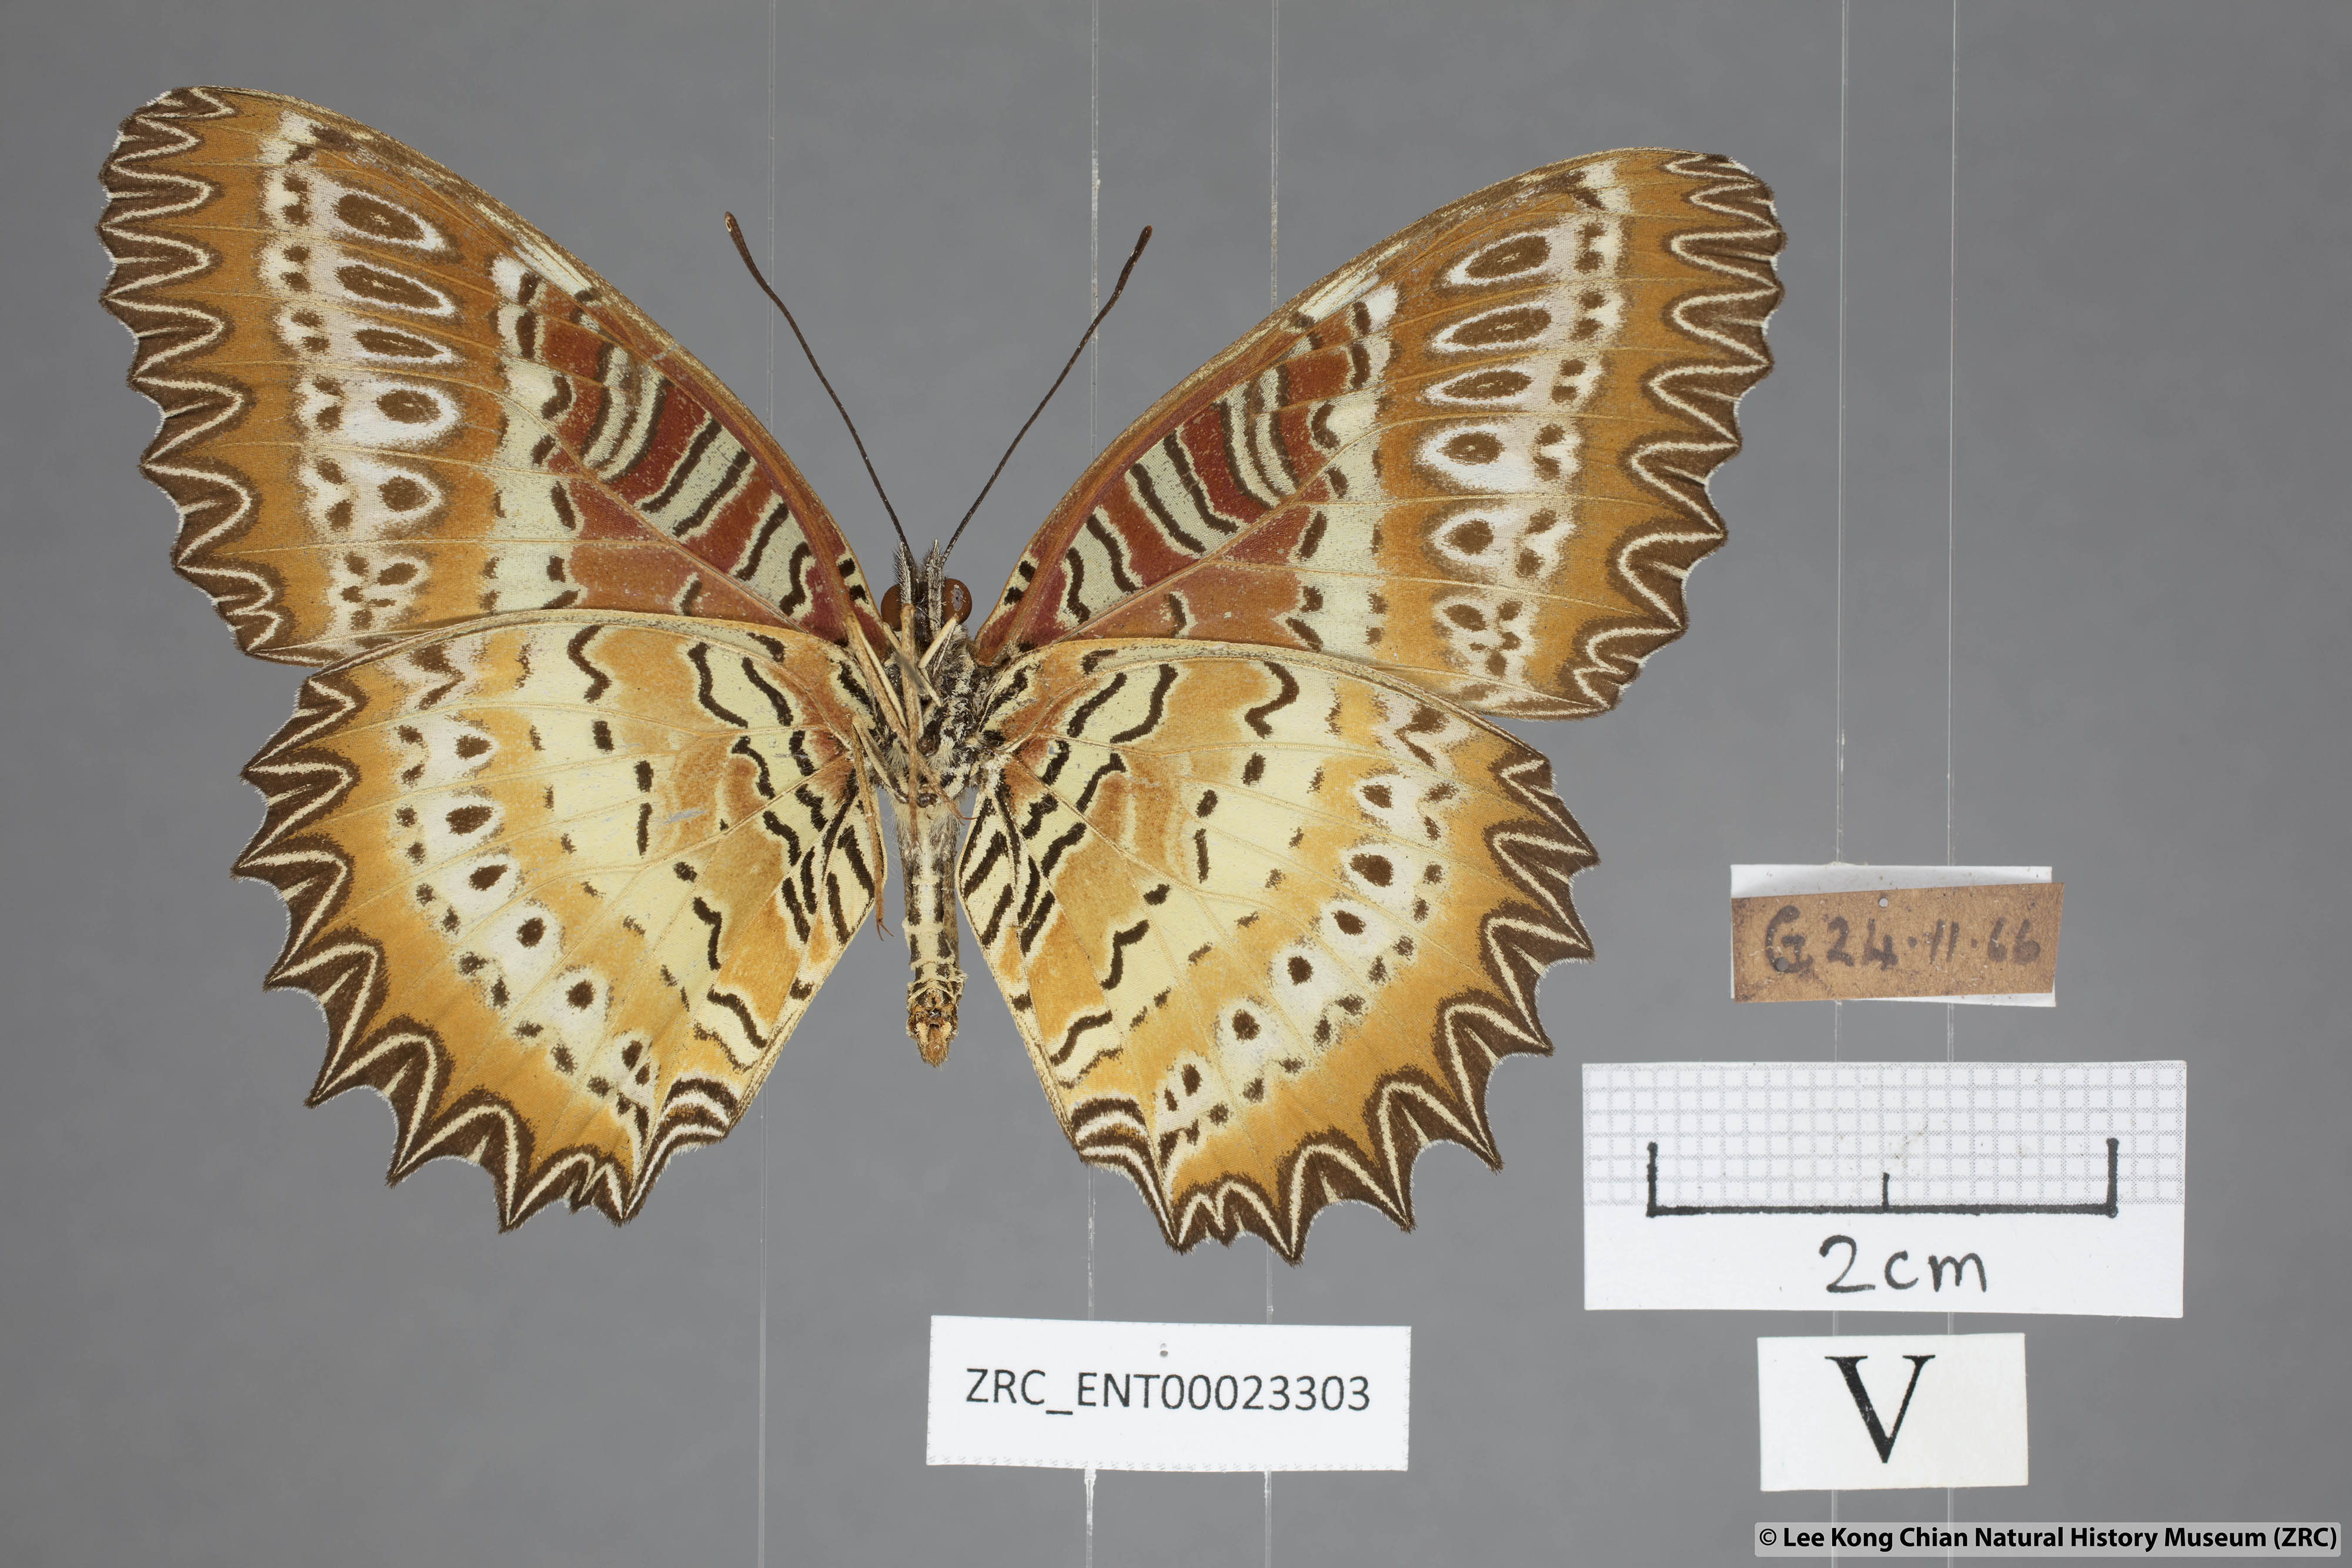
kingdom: Animalia
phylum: Arthropoda
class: Insecta
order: Lepidoptera
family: Nymphalidae
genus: Cethosia
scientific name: Cethosia biblis
